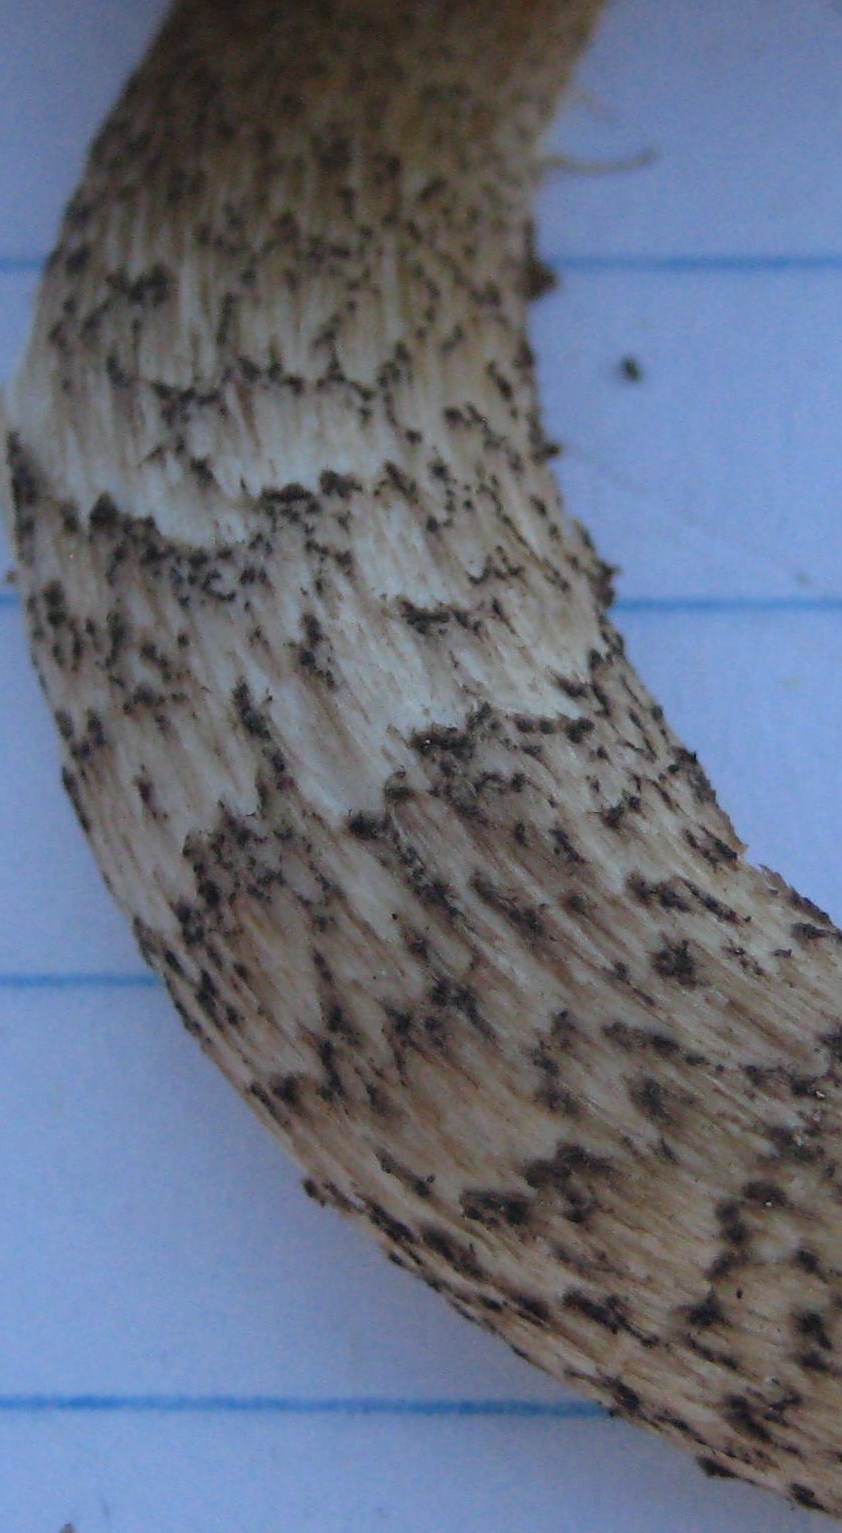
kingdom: Fungi
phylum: Basidiomycota
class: Agaricomycetes
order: Boletales
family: Boletaceae
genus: Leccinum
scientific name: Leccinum scabrum
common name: brun skælrørhat
